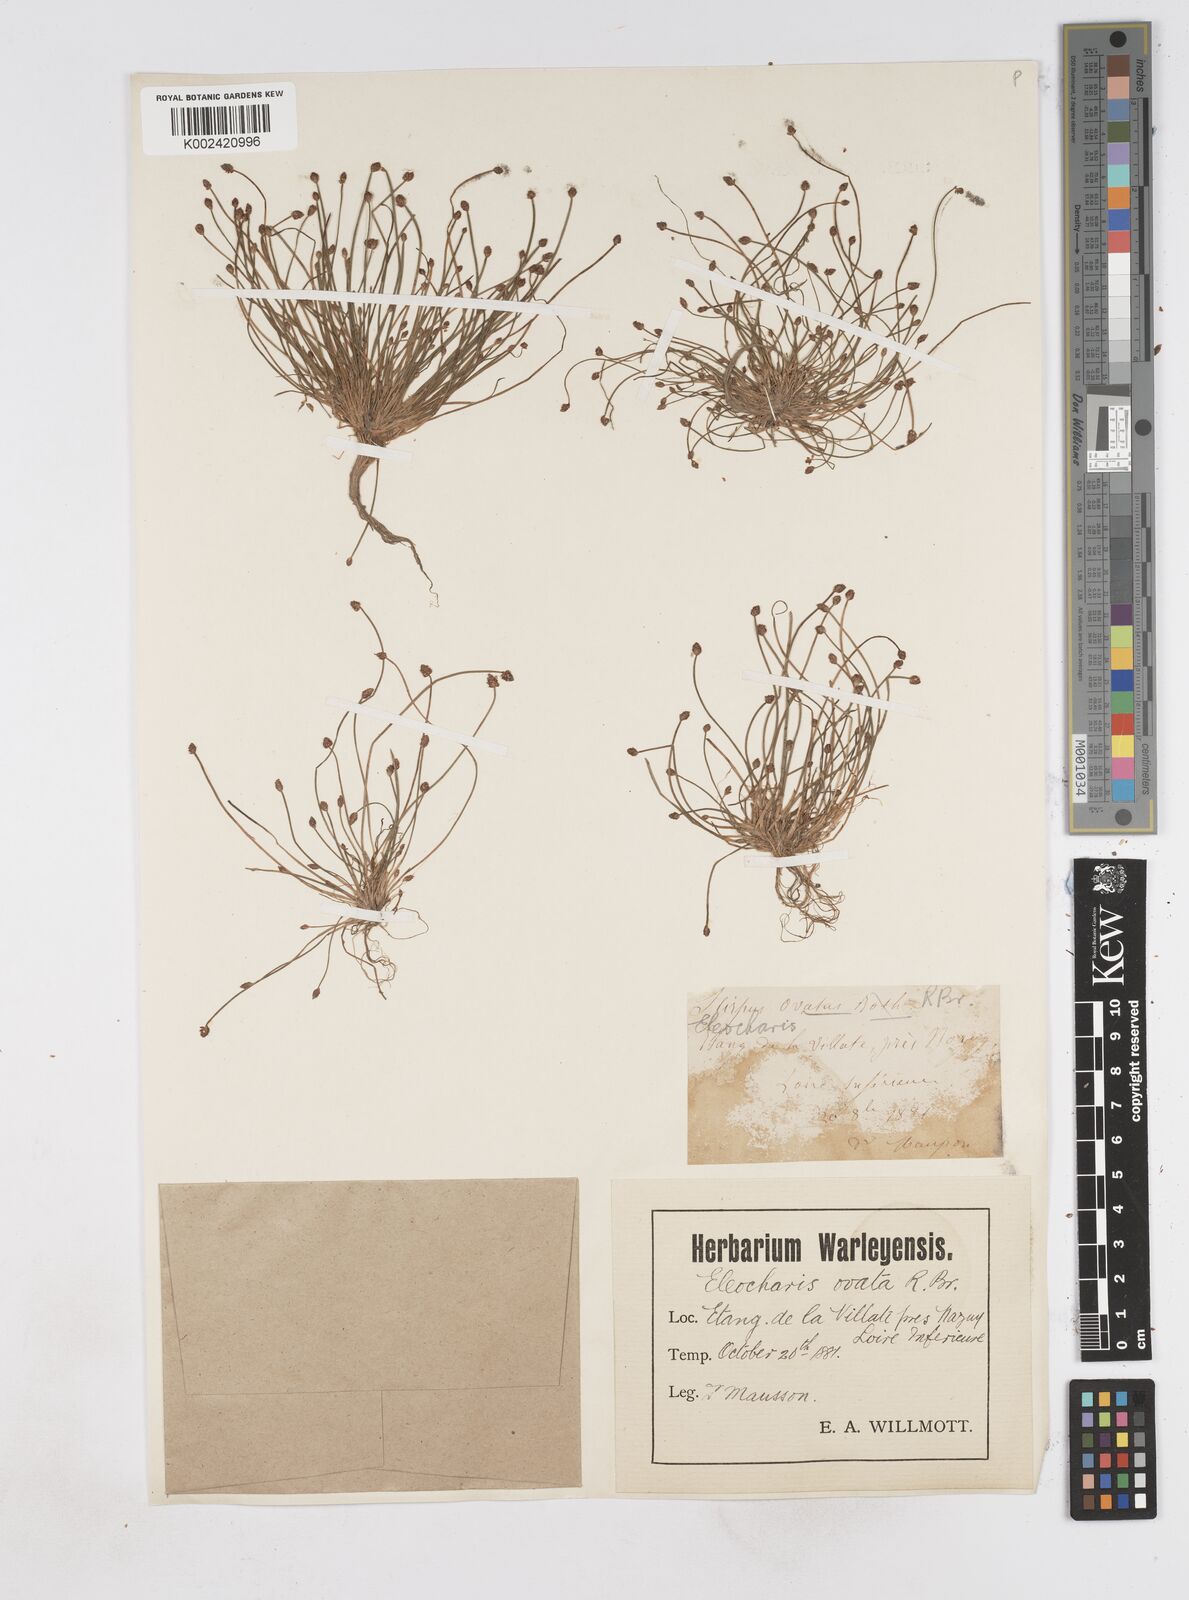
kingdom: Plantae
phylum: Tracheophyta
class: Liliopsida
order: Poales
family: Cyperaceae
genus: Eleocharis
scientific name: Eleocharis ovata
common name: Oval spike-rush
